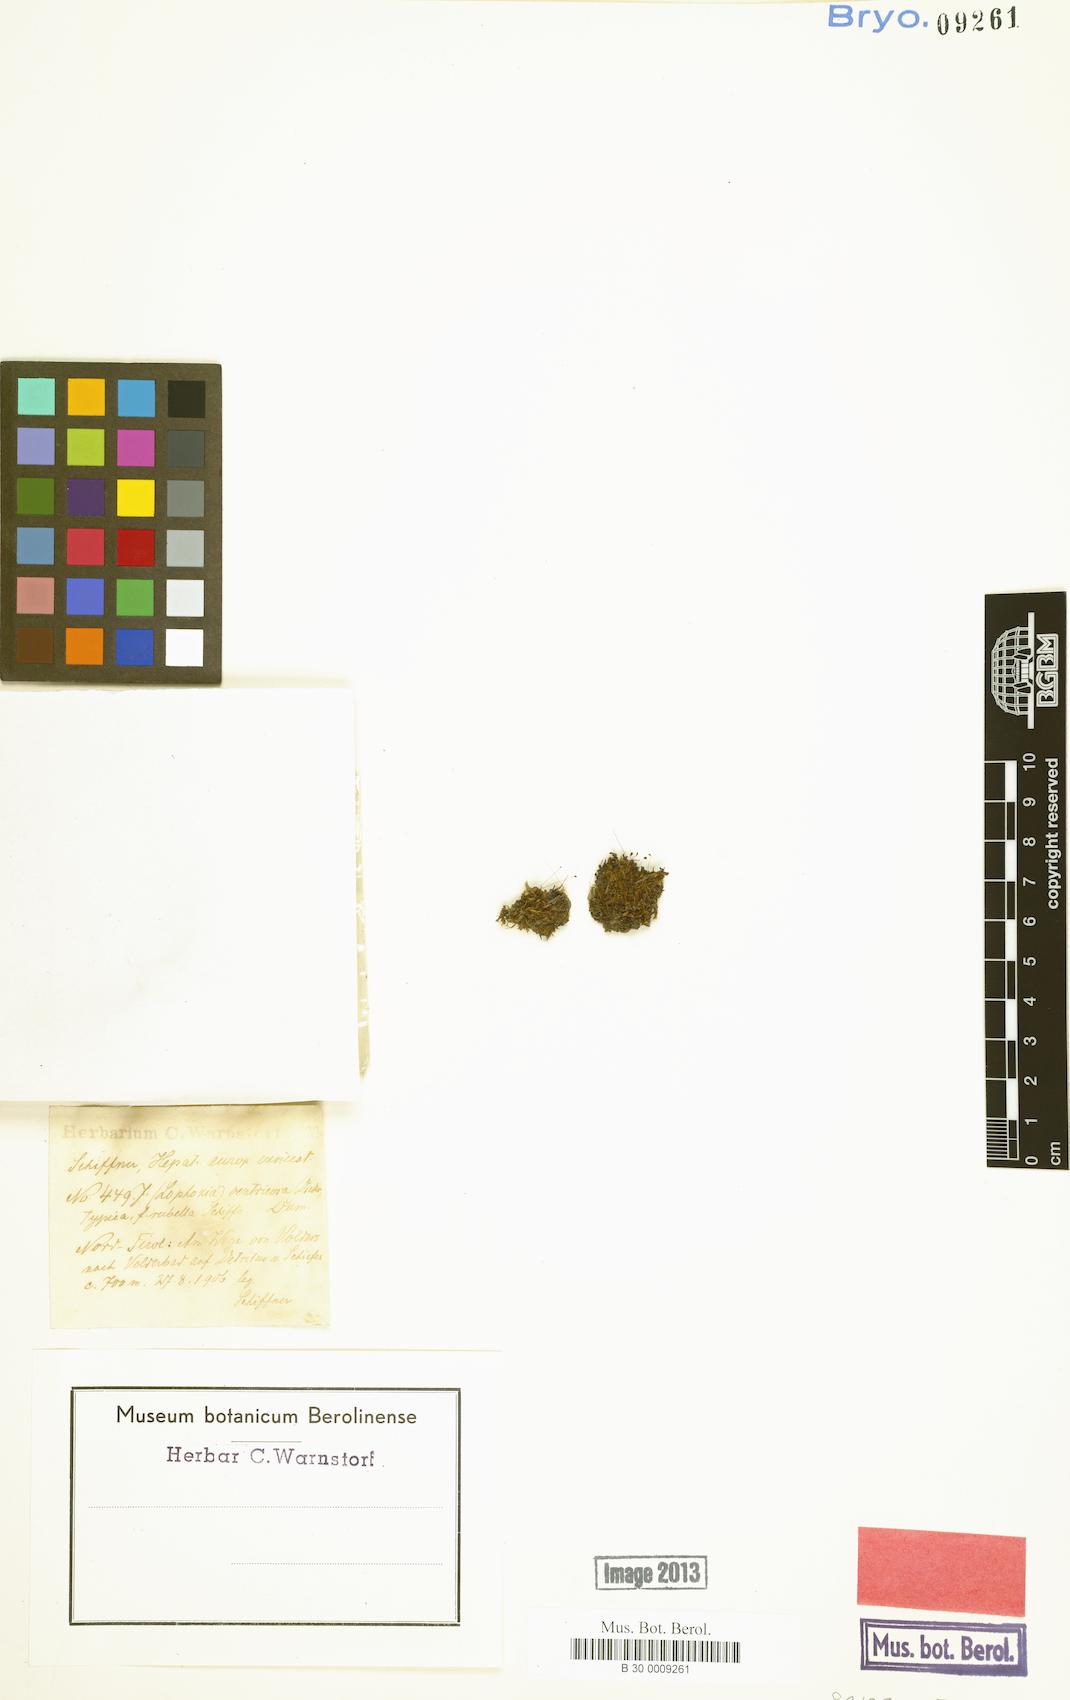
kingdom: Plantae
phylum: Marchantiophyta
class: Jungermanniopsida
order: Jungermanniales
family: Lophoziaceae
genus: Lophozia
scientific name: Lophozia ventricosa
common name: Tumid notchwort
